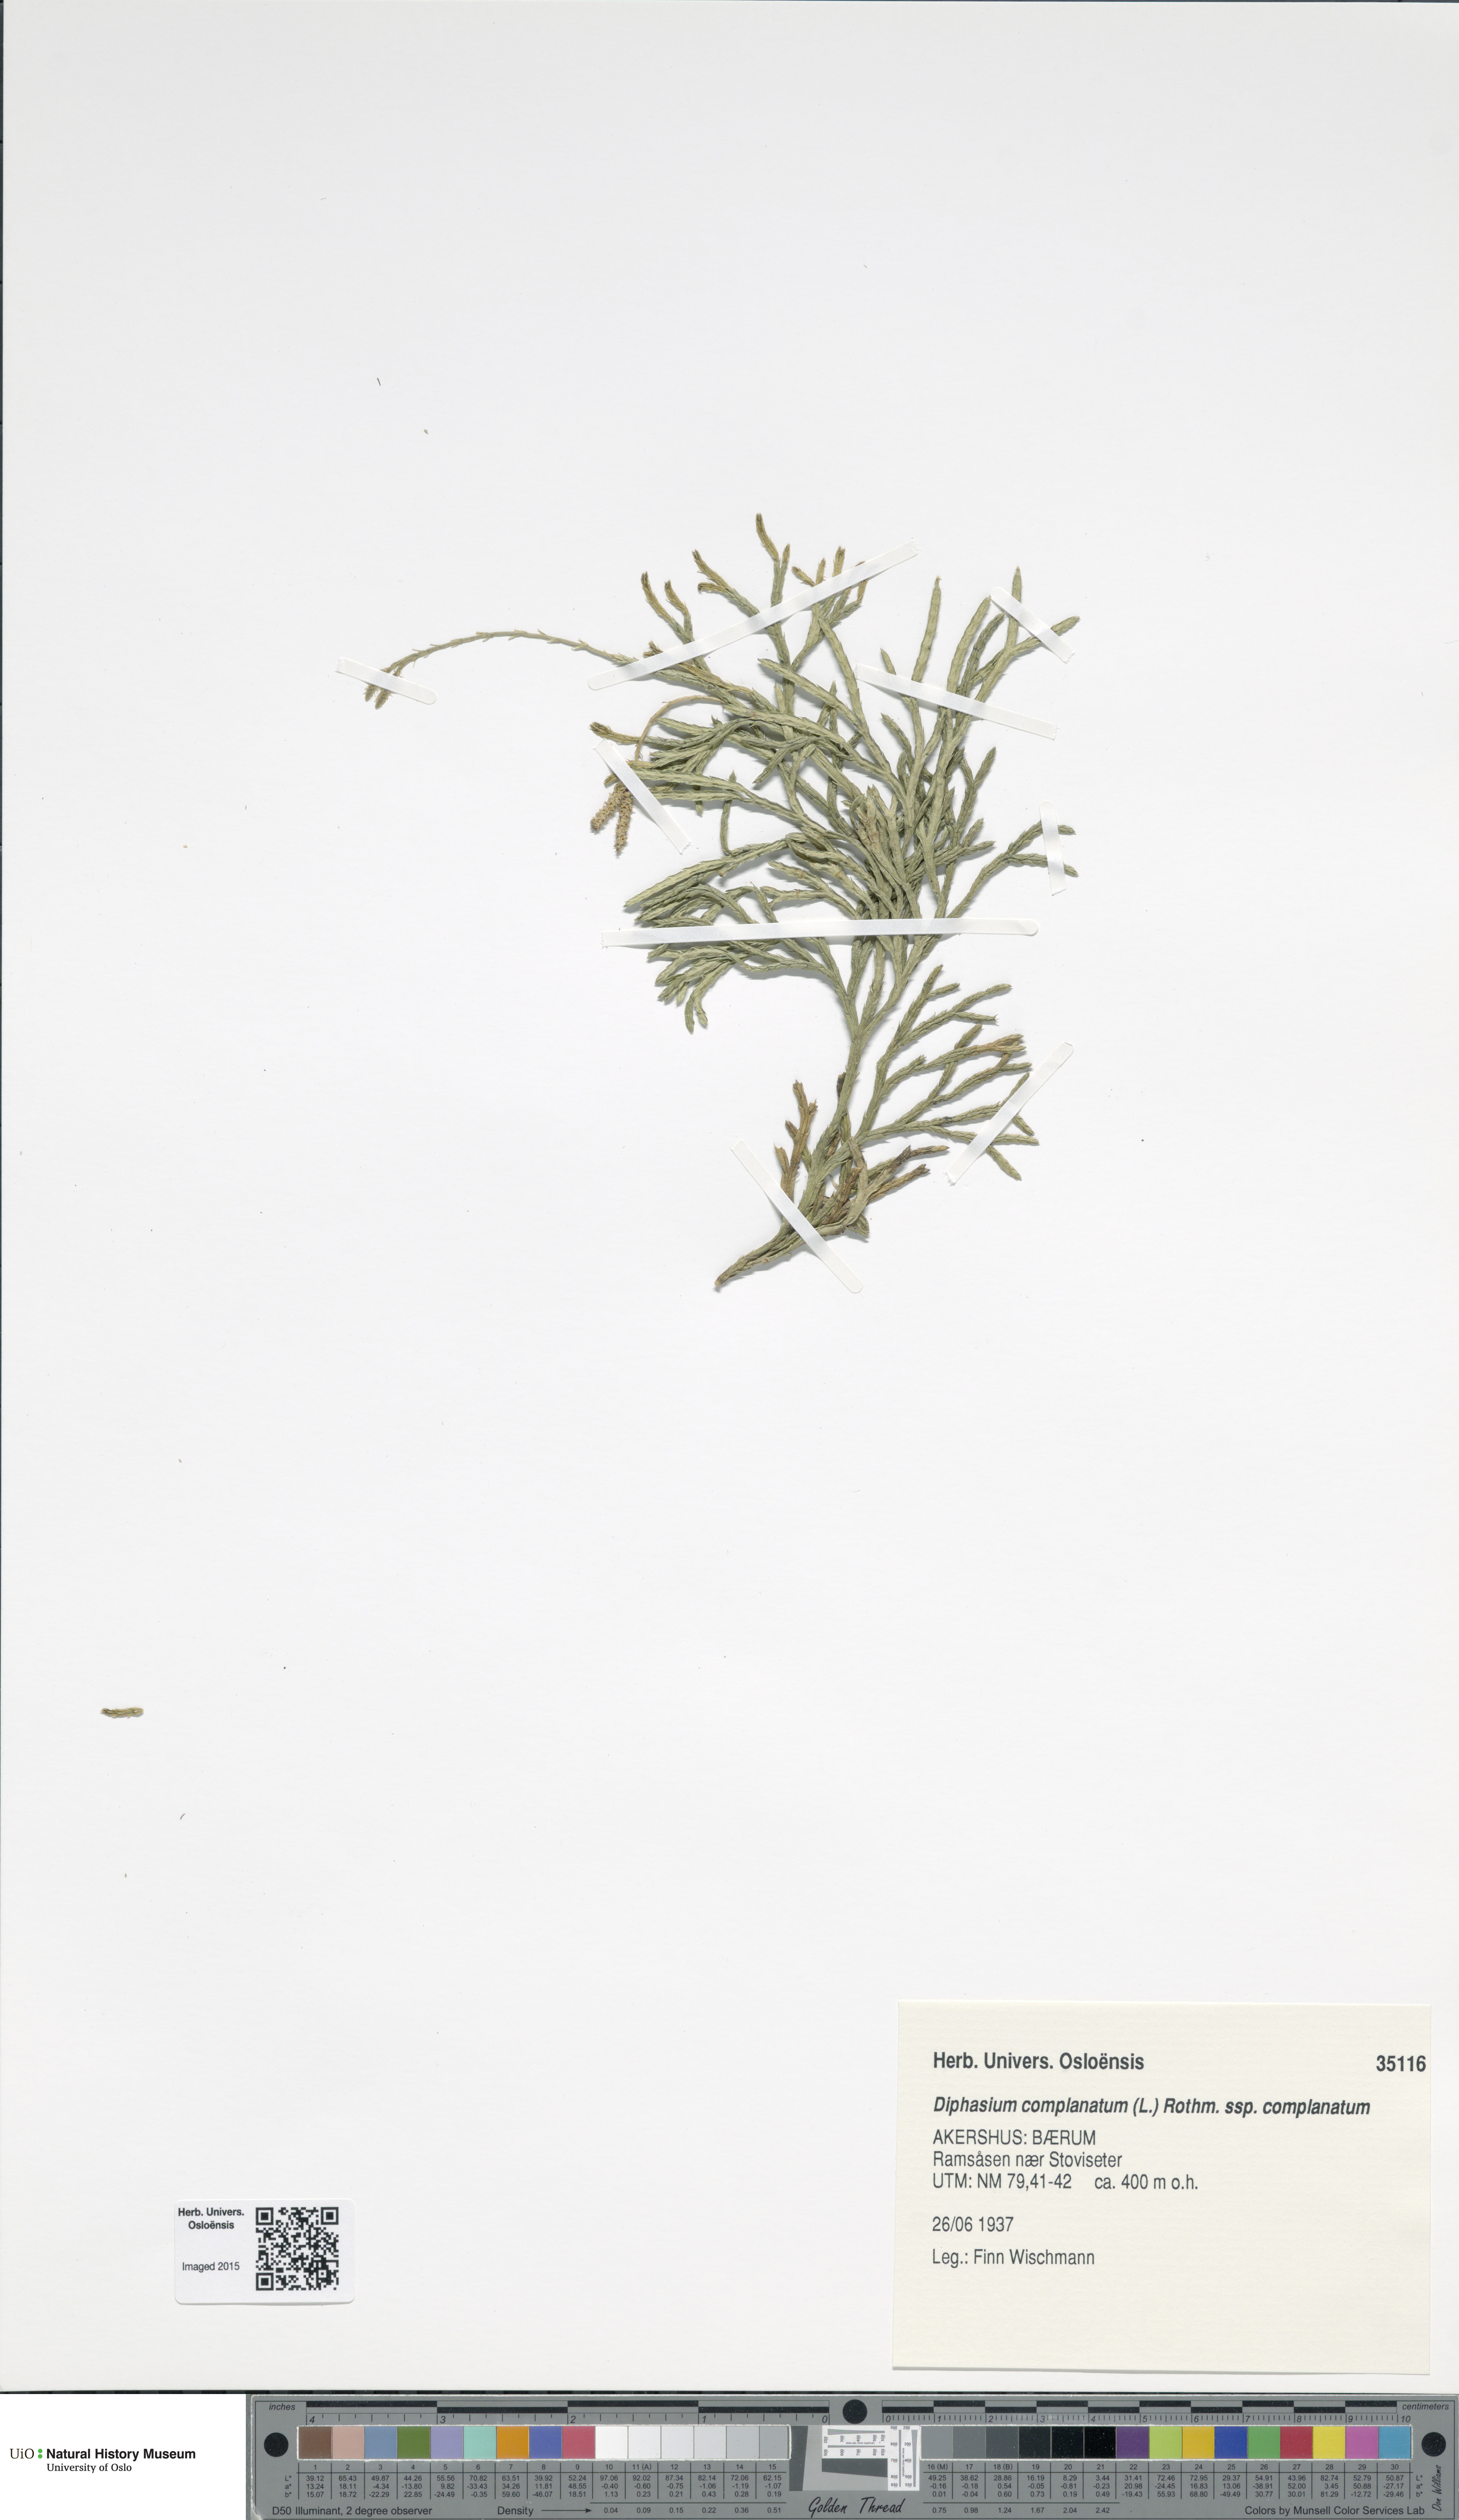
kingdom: Plantae
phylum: Tracheophyta
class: Lycopodiopsida
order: Lycopodiales
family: Lycopodiaceae
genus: Diphasiastrum
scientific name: Diphasiastrum complanatum
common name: Northern running-pine
